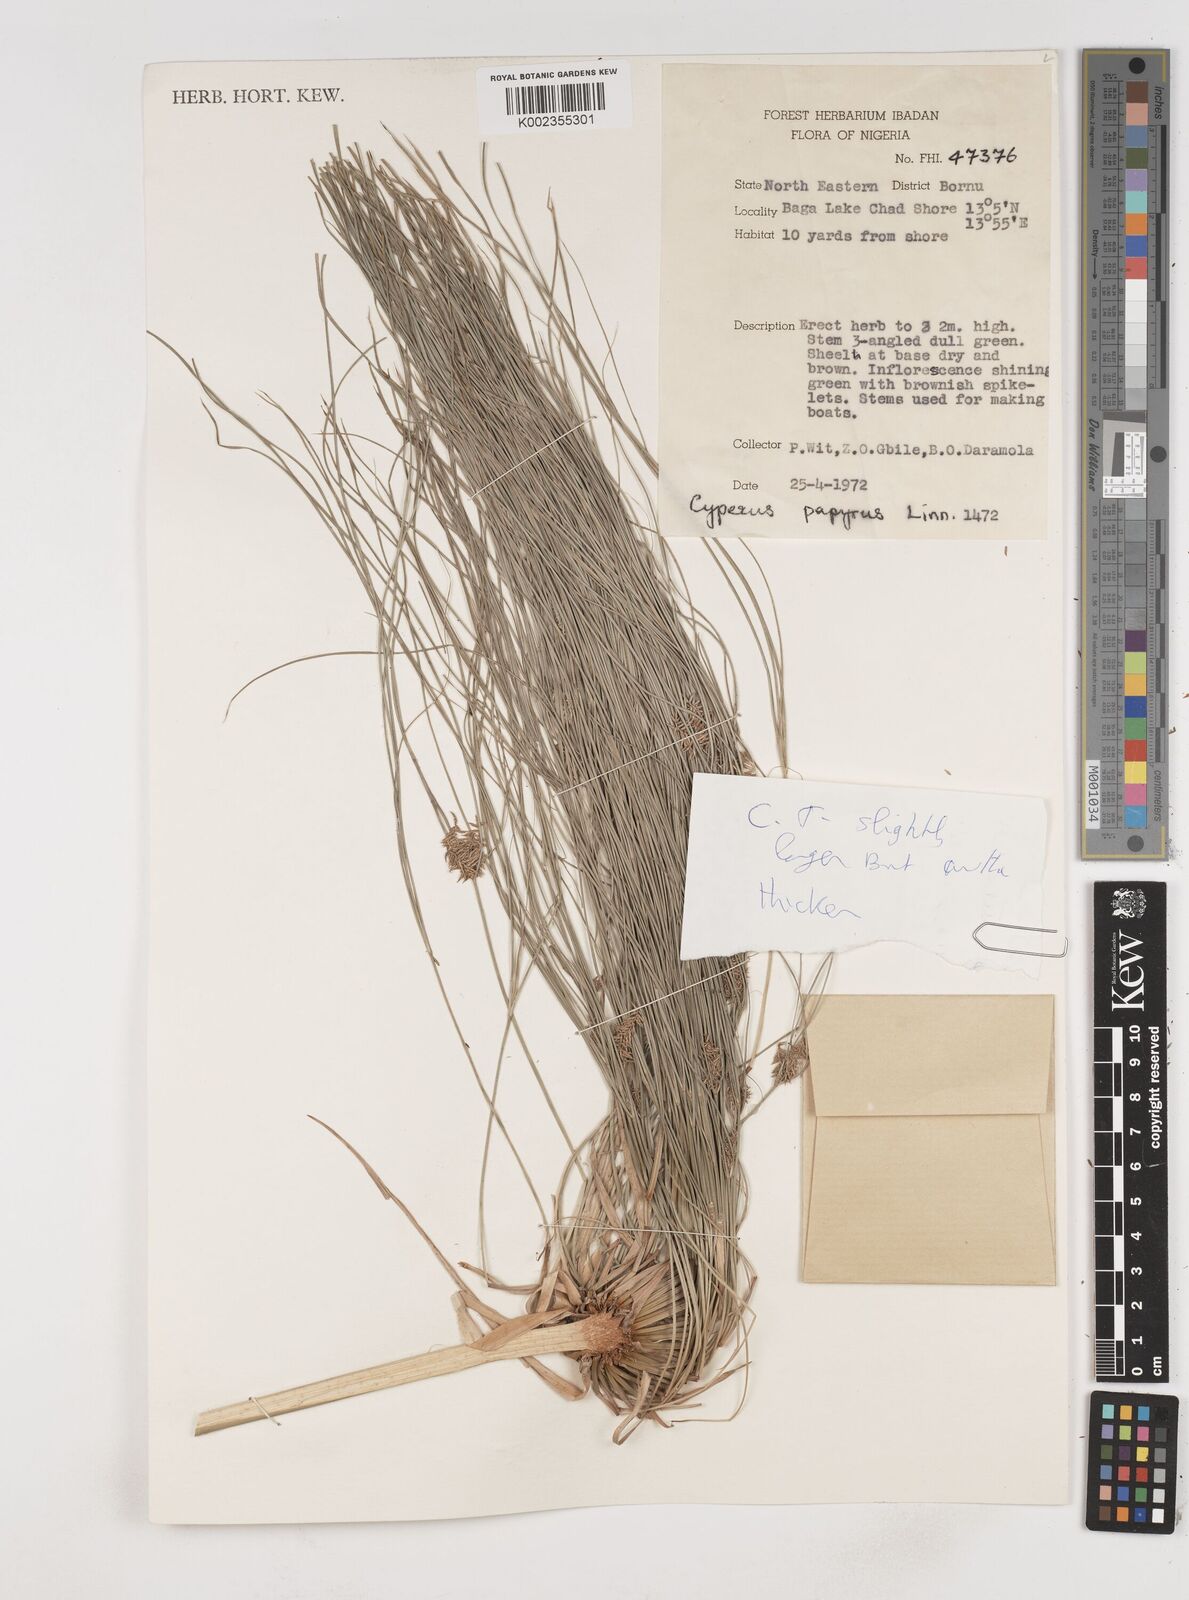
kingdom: Plantae
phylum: Tracheophyta
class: Liliopsida
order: Poales
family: Cyperaceae
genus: Cyperus
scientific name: Cyperus papyrus
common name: Papyrus
